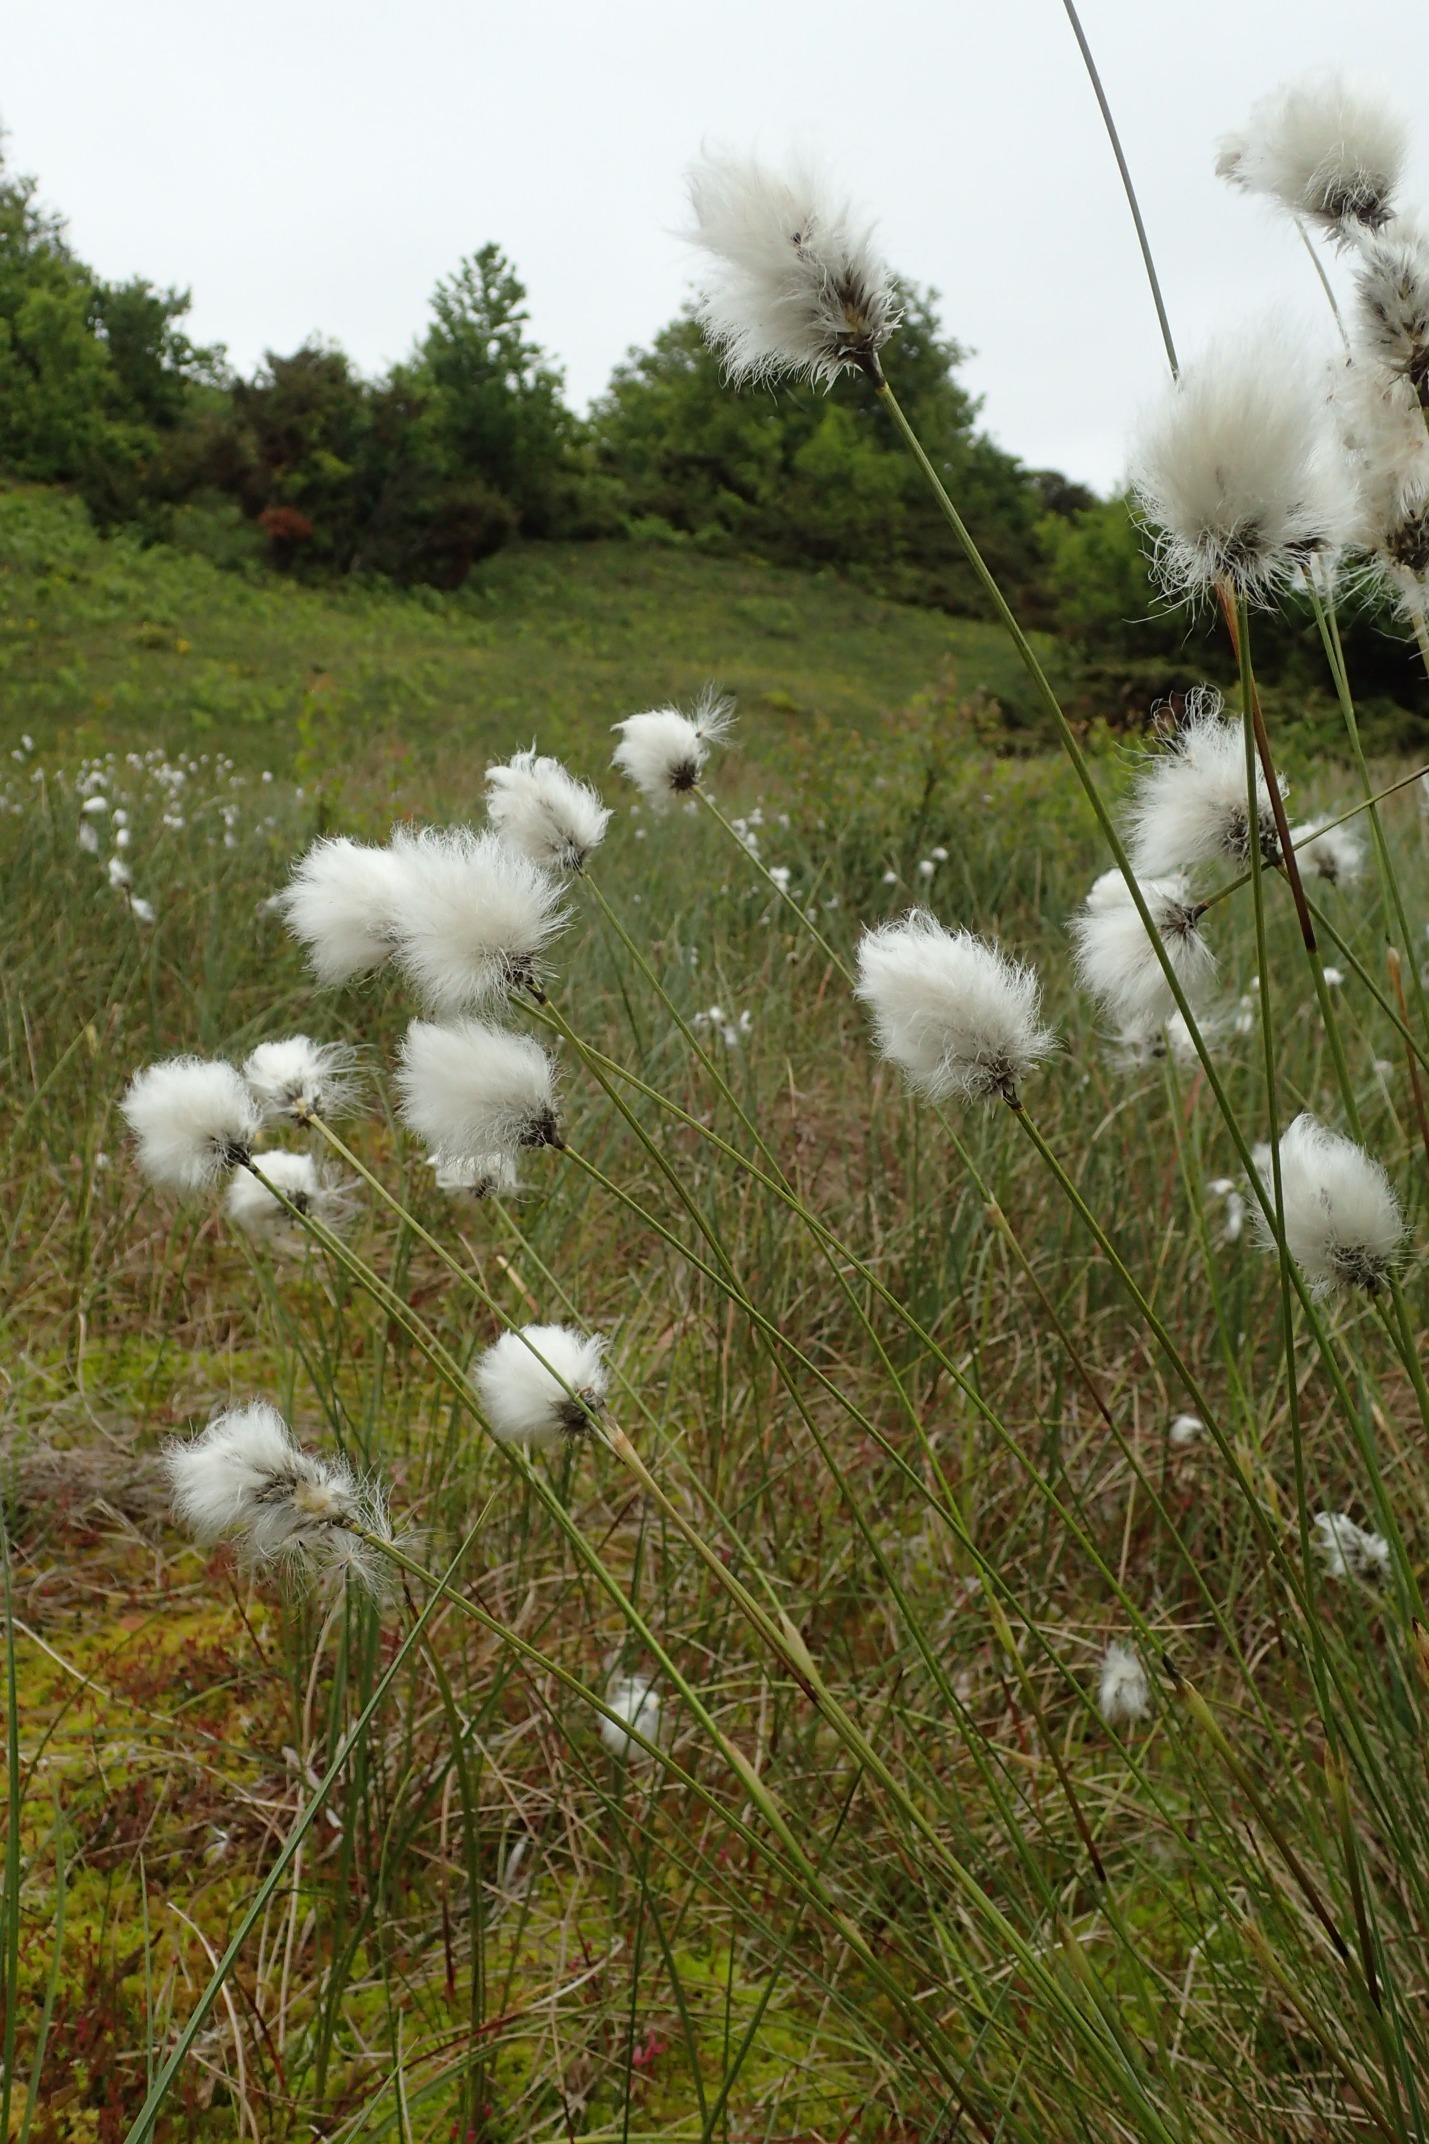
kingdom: Plantae
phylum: Tracheophyta
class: Liliopsida
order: Poales
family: Cyperaceae
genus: Eriophorum
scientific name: Eriophorum vaginatum
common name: Tue-kæruld
